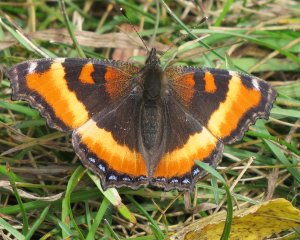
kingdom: Animalia
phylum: Arthropoda
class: Insecta
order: Lepidoptera
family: Nymphalidae
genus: Aglais
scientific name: Aglais milberti
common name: Milbert's Tortoiseshell
